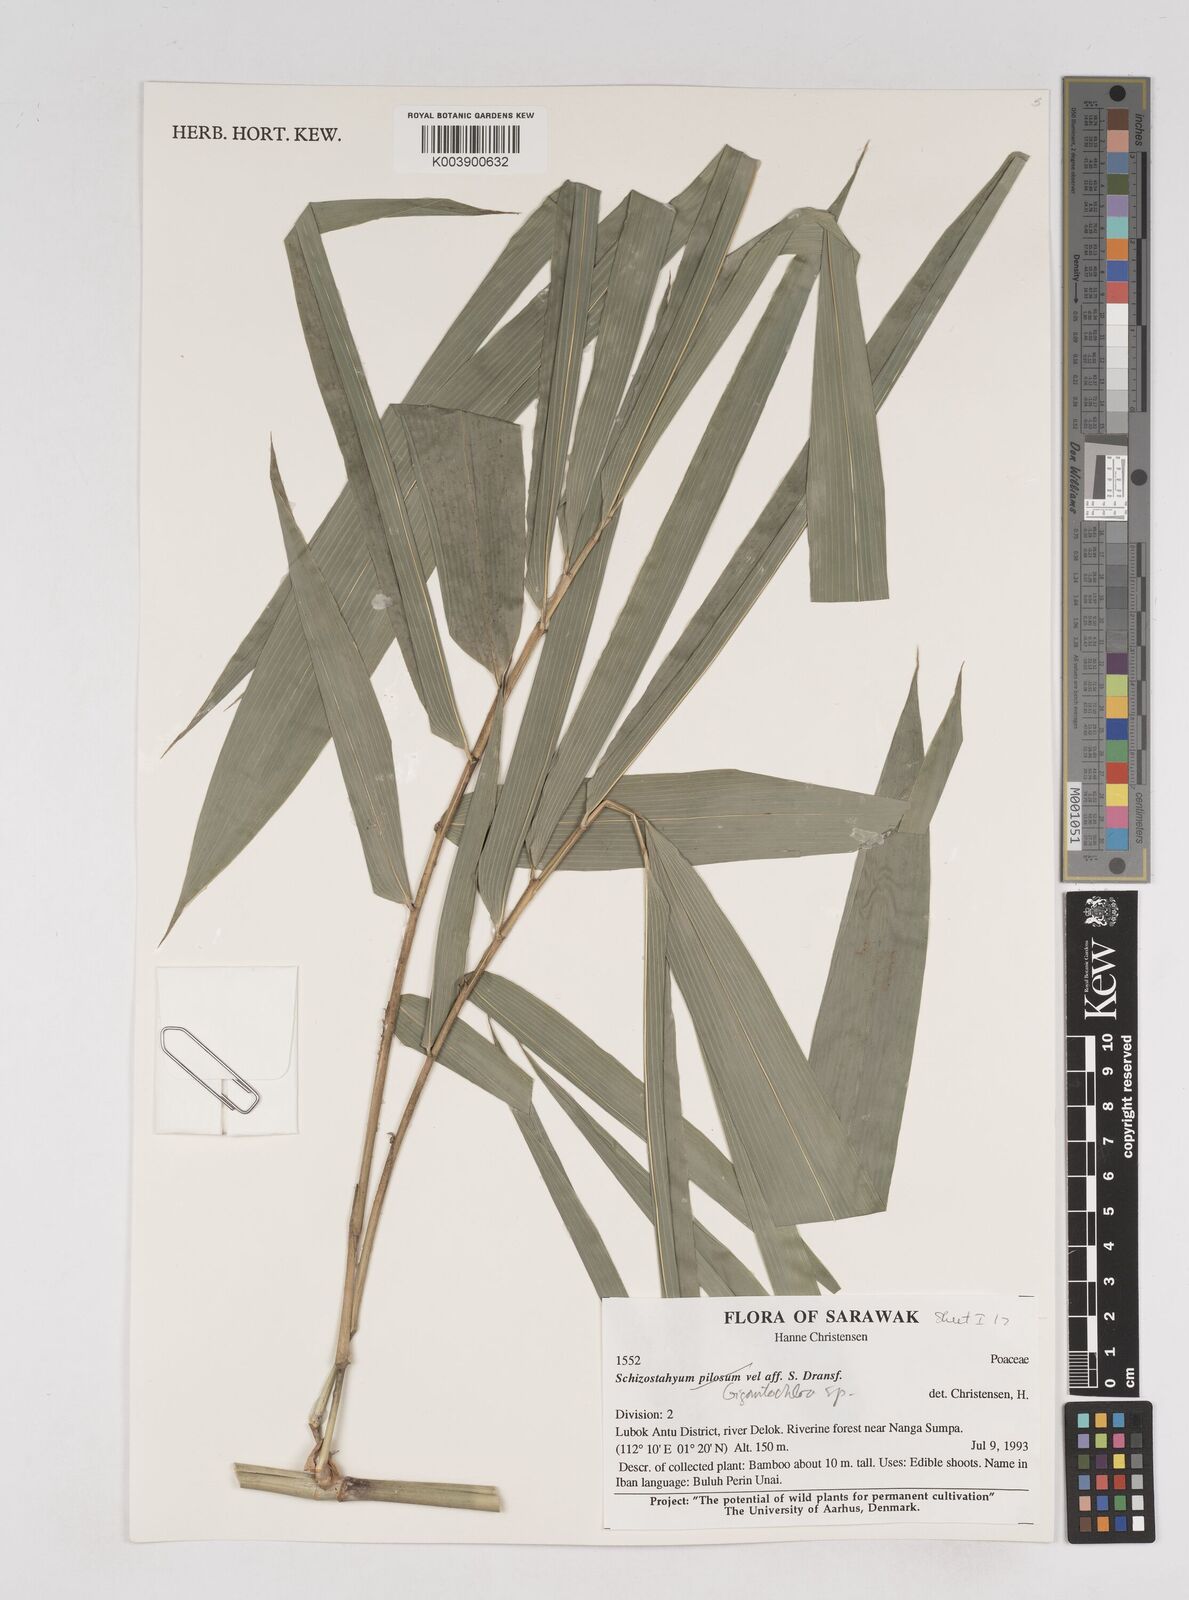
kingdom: Plantae
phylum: Tracheophyta
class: Liliopsida
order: Poales
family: Poaceae
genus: Gigantochloa
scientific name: Gigantochloa
